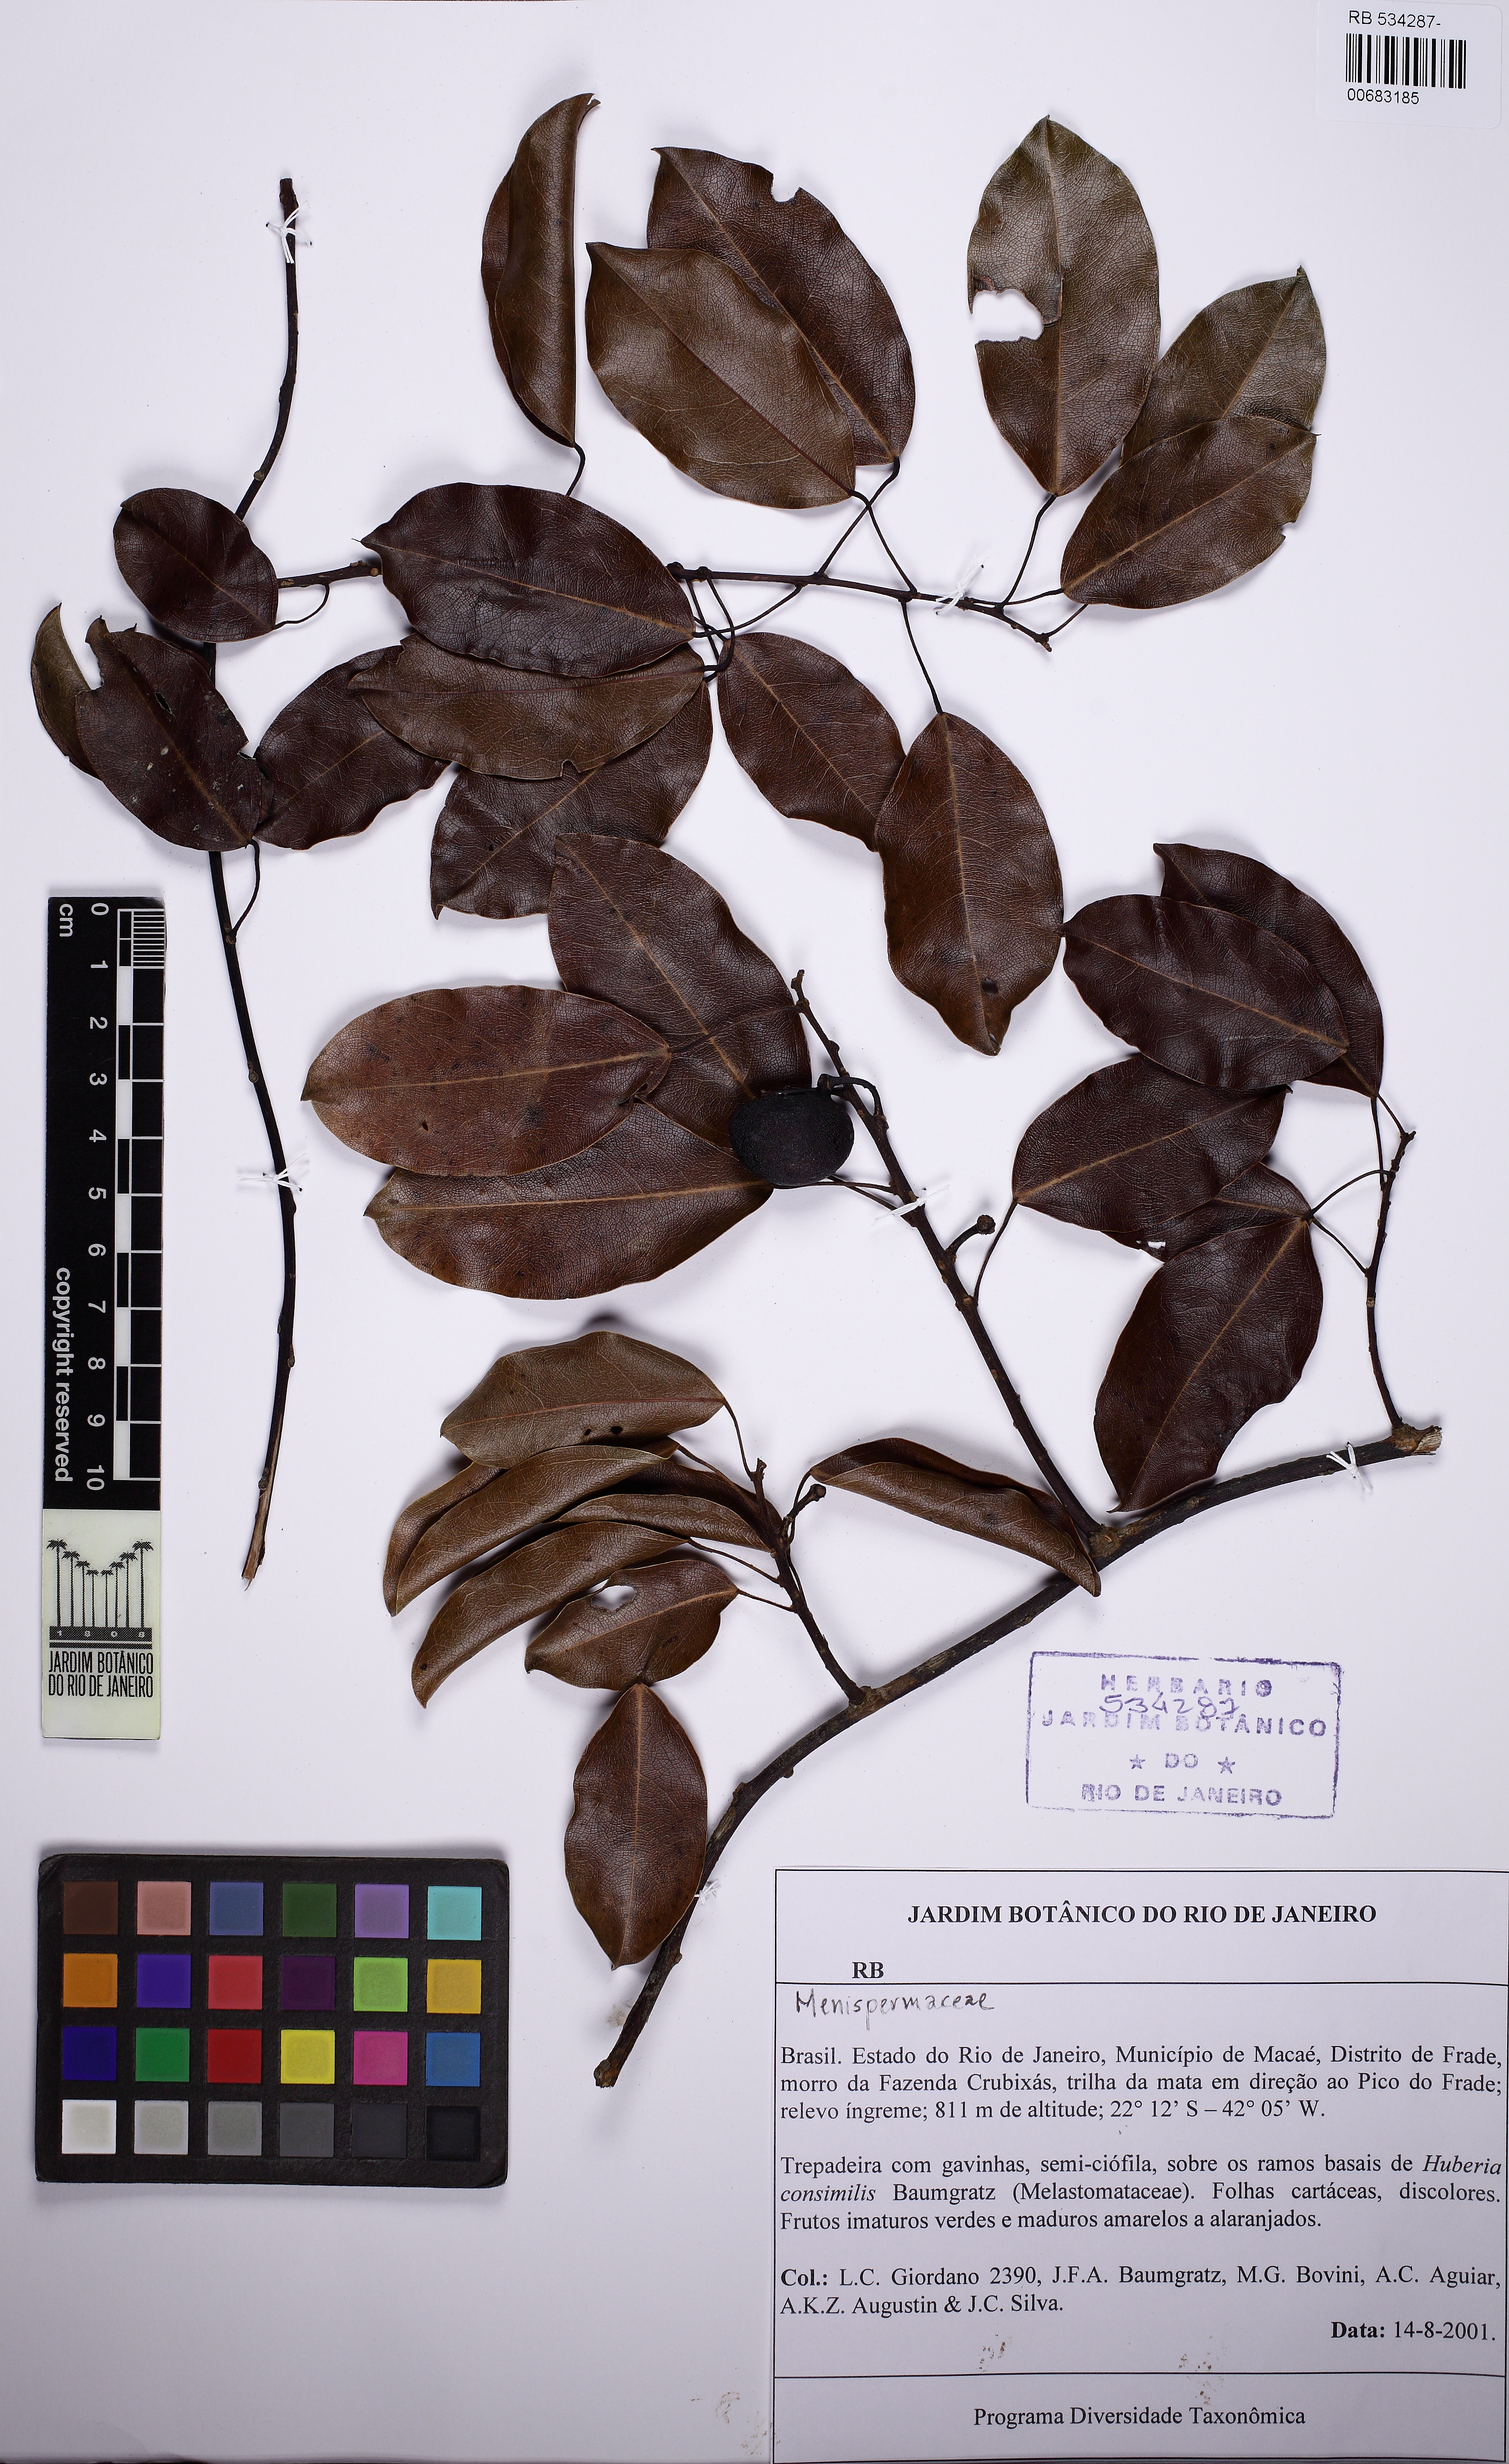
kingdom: Plantae
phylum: Tracheophyta
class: Magnoliopsida
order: Ranunculales
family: Menispermaceae
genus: Anomospermum
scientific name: Anomospermum reticulatum
